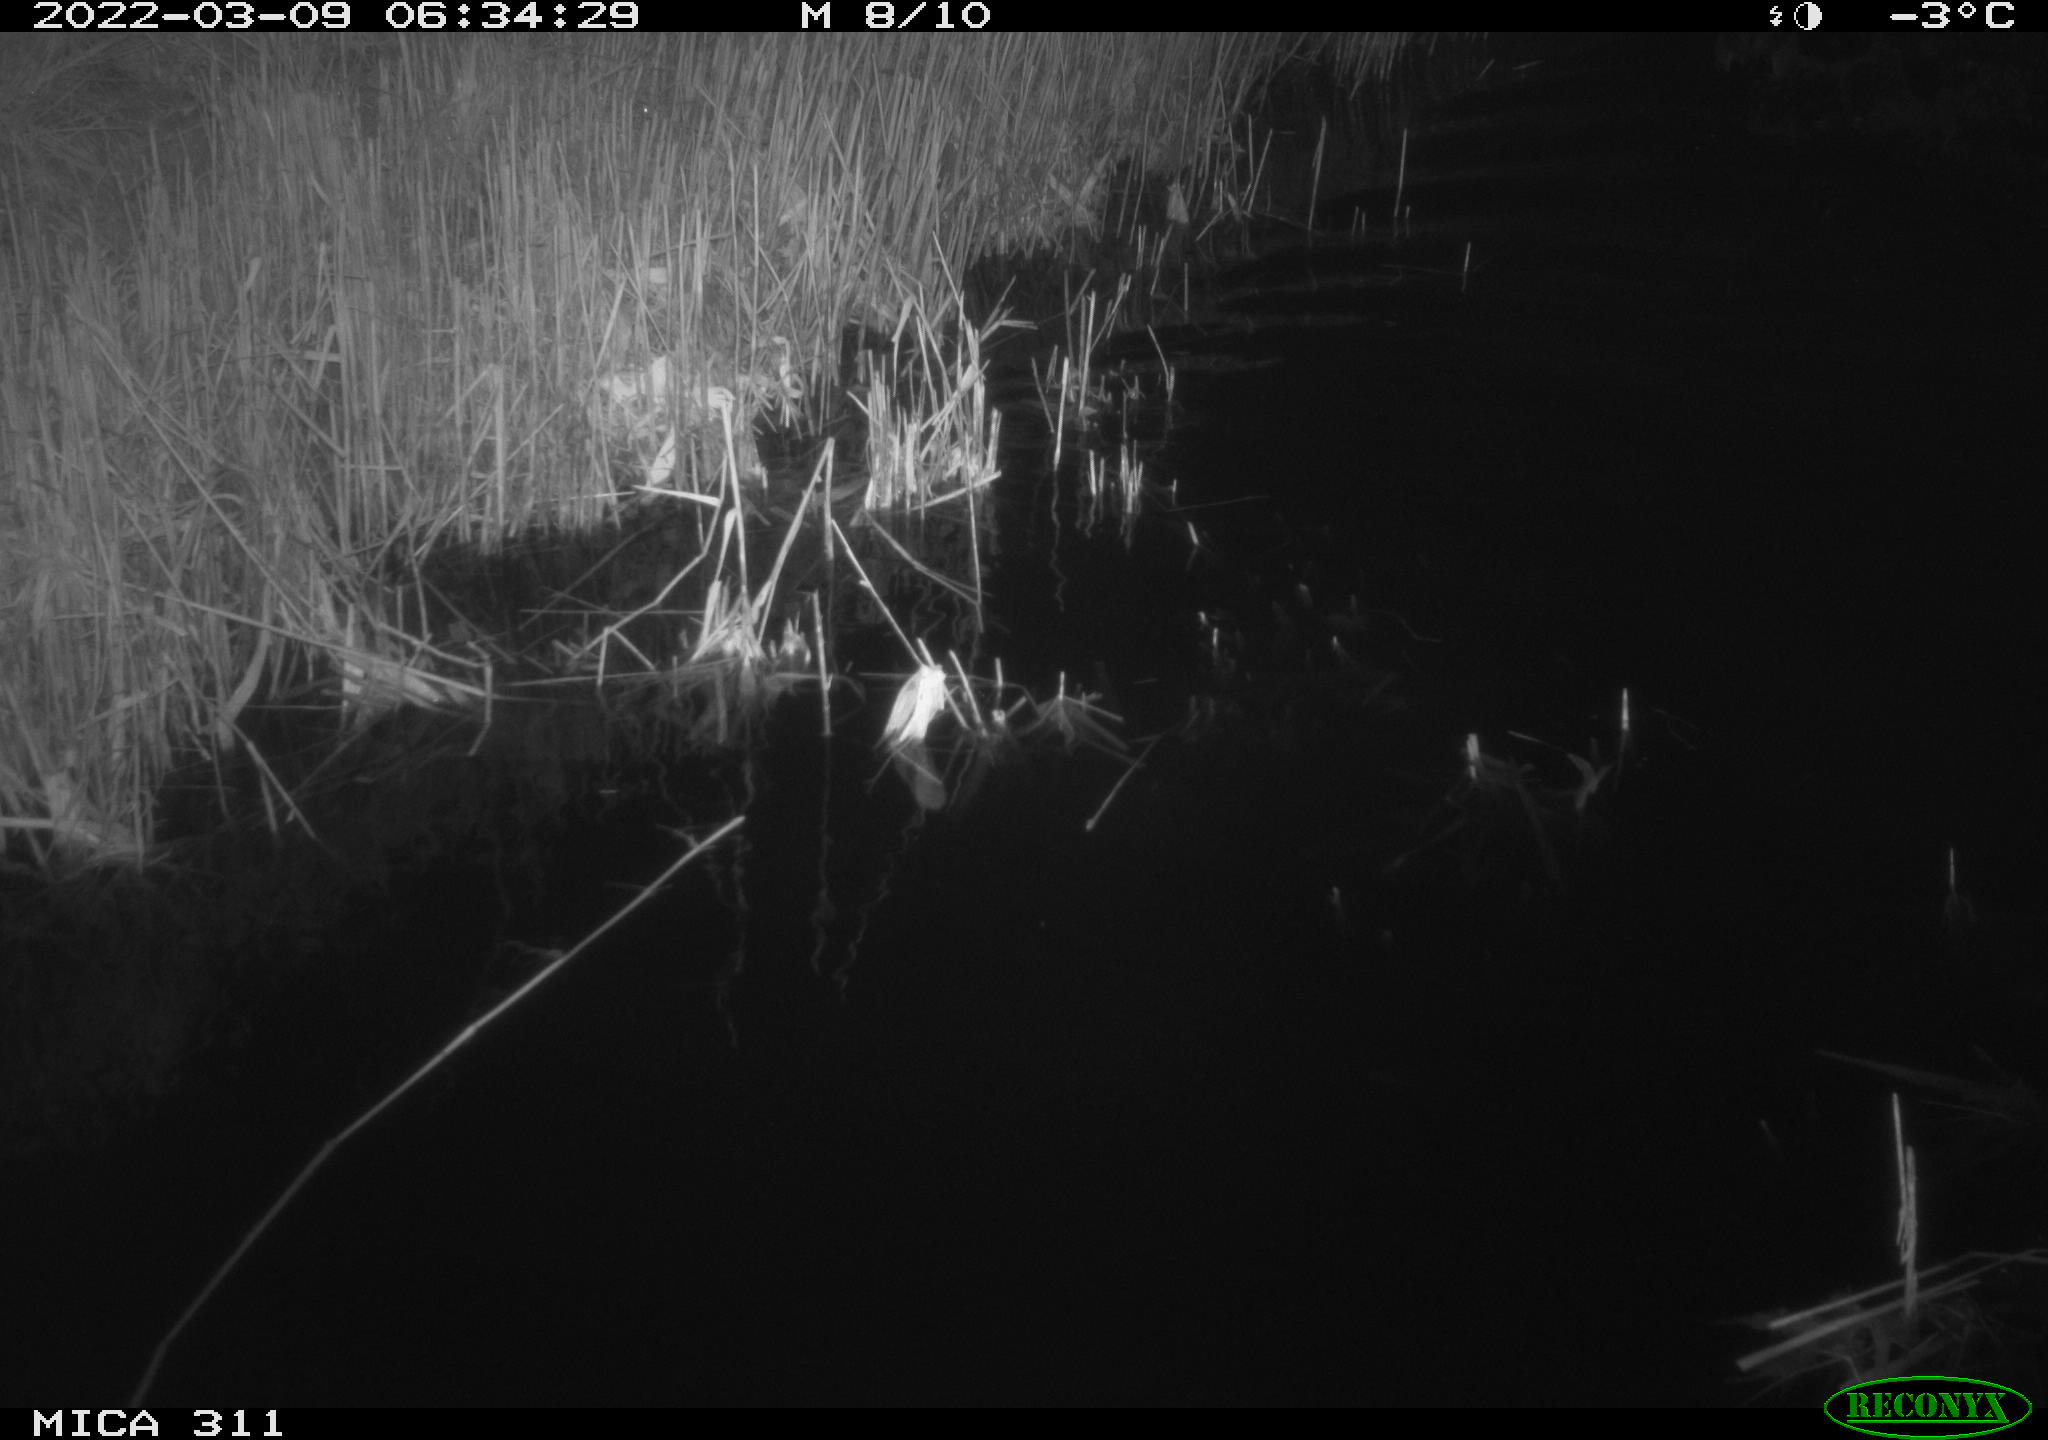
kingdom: Animalia
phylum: Chordata
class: Aves
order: Anseriformes
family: Anatidae
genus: Anas
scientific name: Anas
